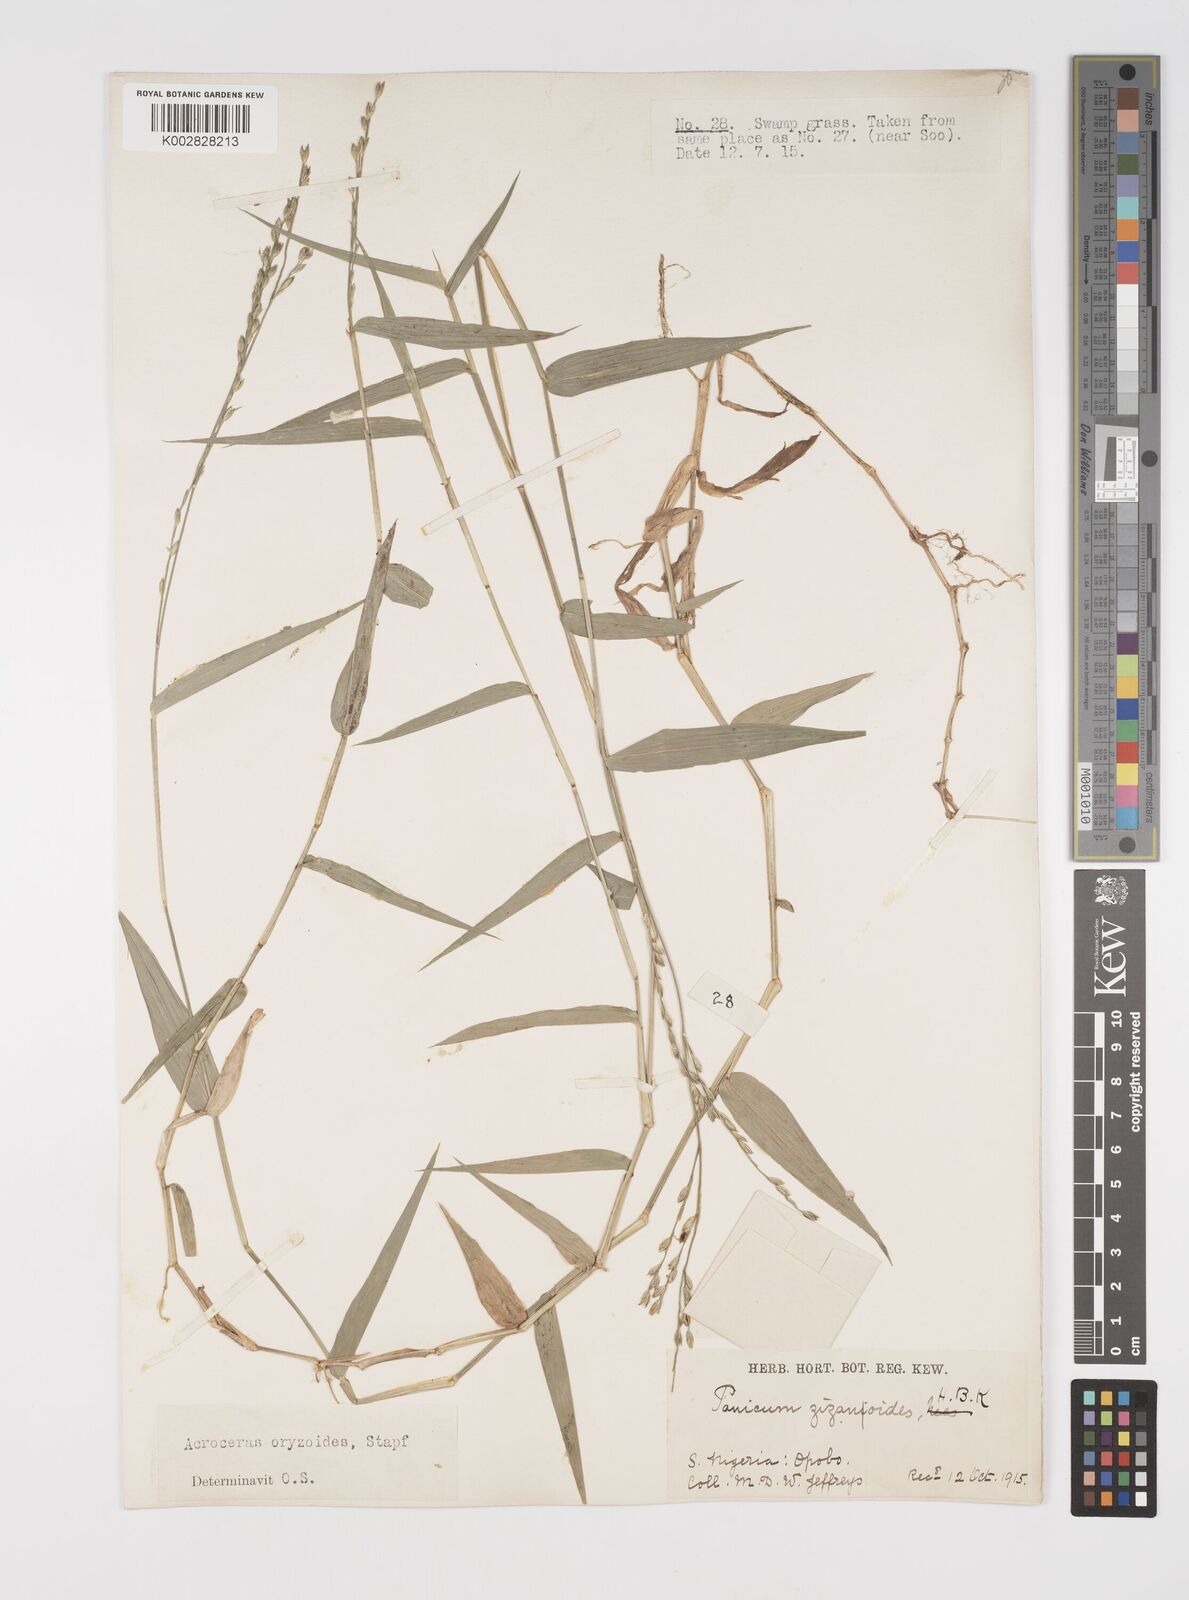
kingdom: Plantae
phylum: Tracheophyta
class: Liliopsida
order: Poales
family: Poaceae
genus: Acroceras
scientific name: Acroceras zizanioides
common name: Oat grass
